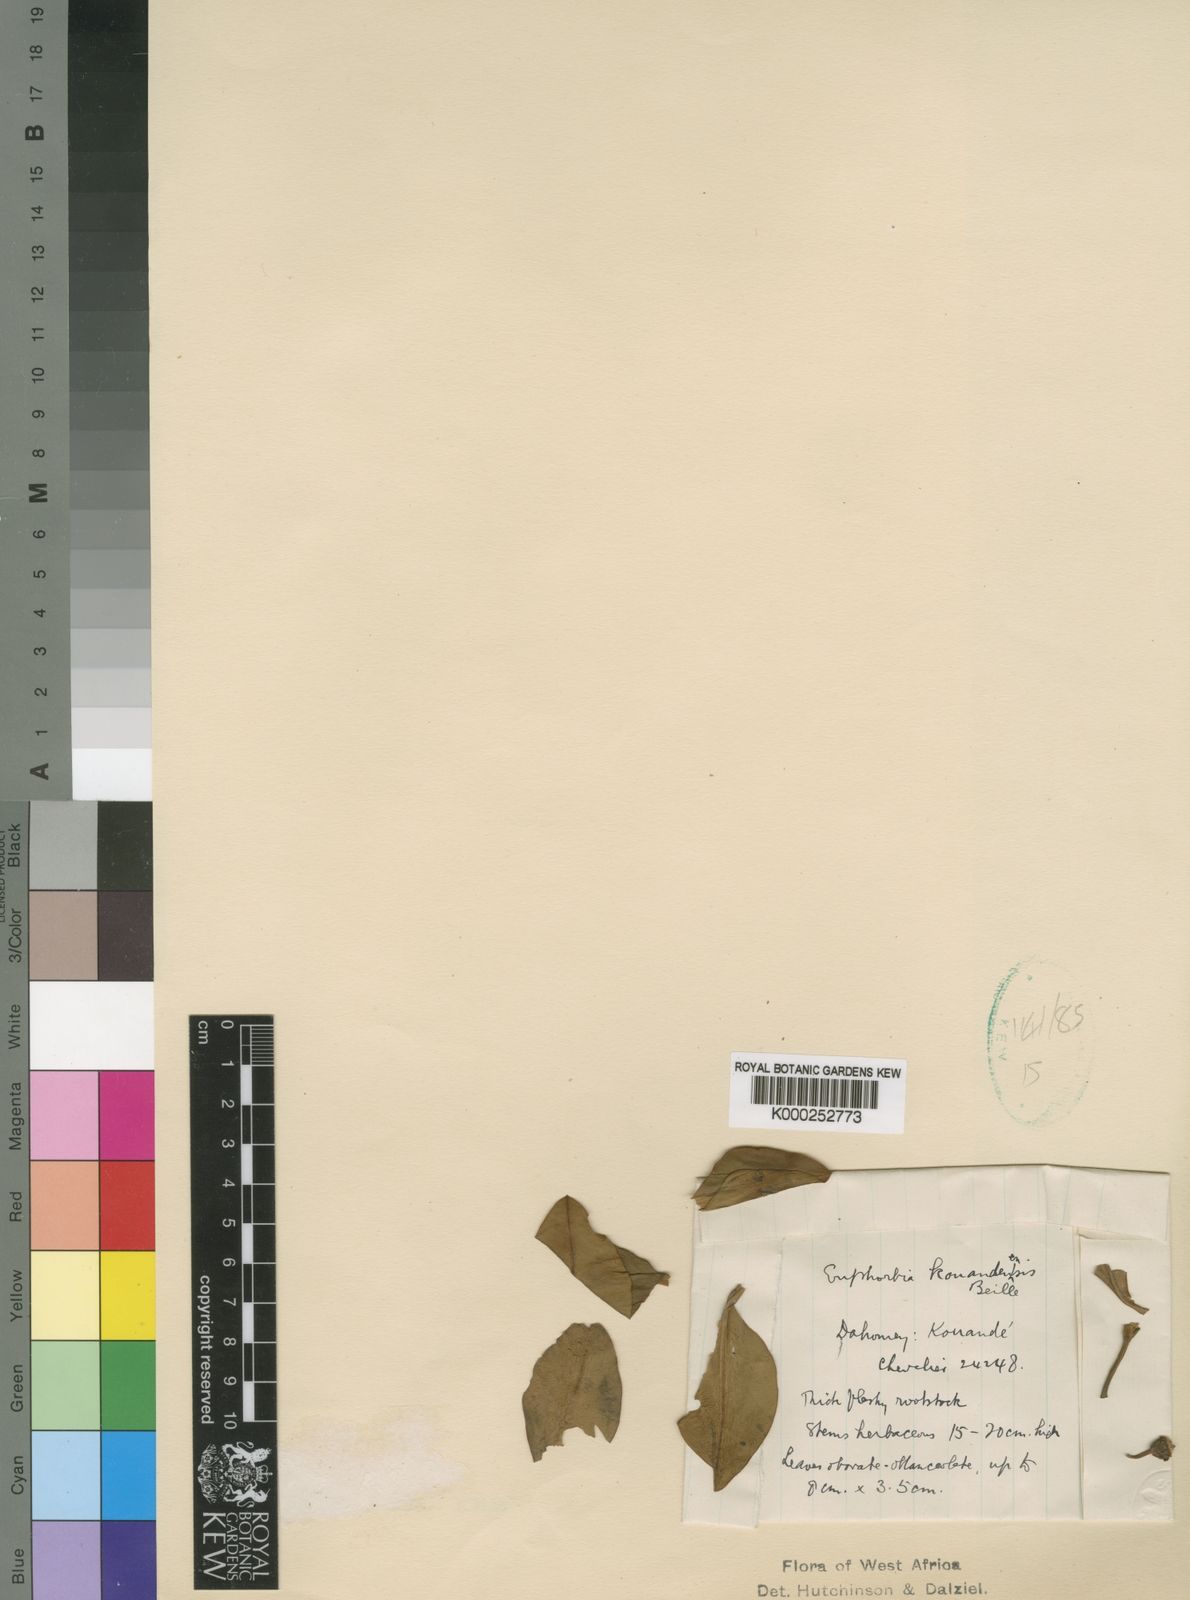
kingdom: Plantae
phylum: Tracheophyta
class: Magnoliopsida
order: Malpighiales
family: Euphorbiaceae
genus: Euphorbia
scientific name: Euphorbia kouandenensis
